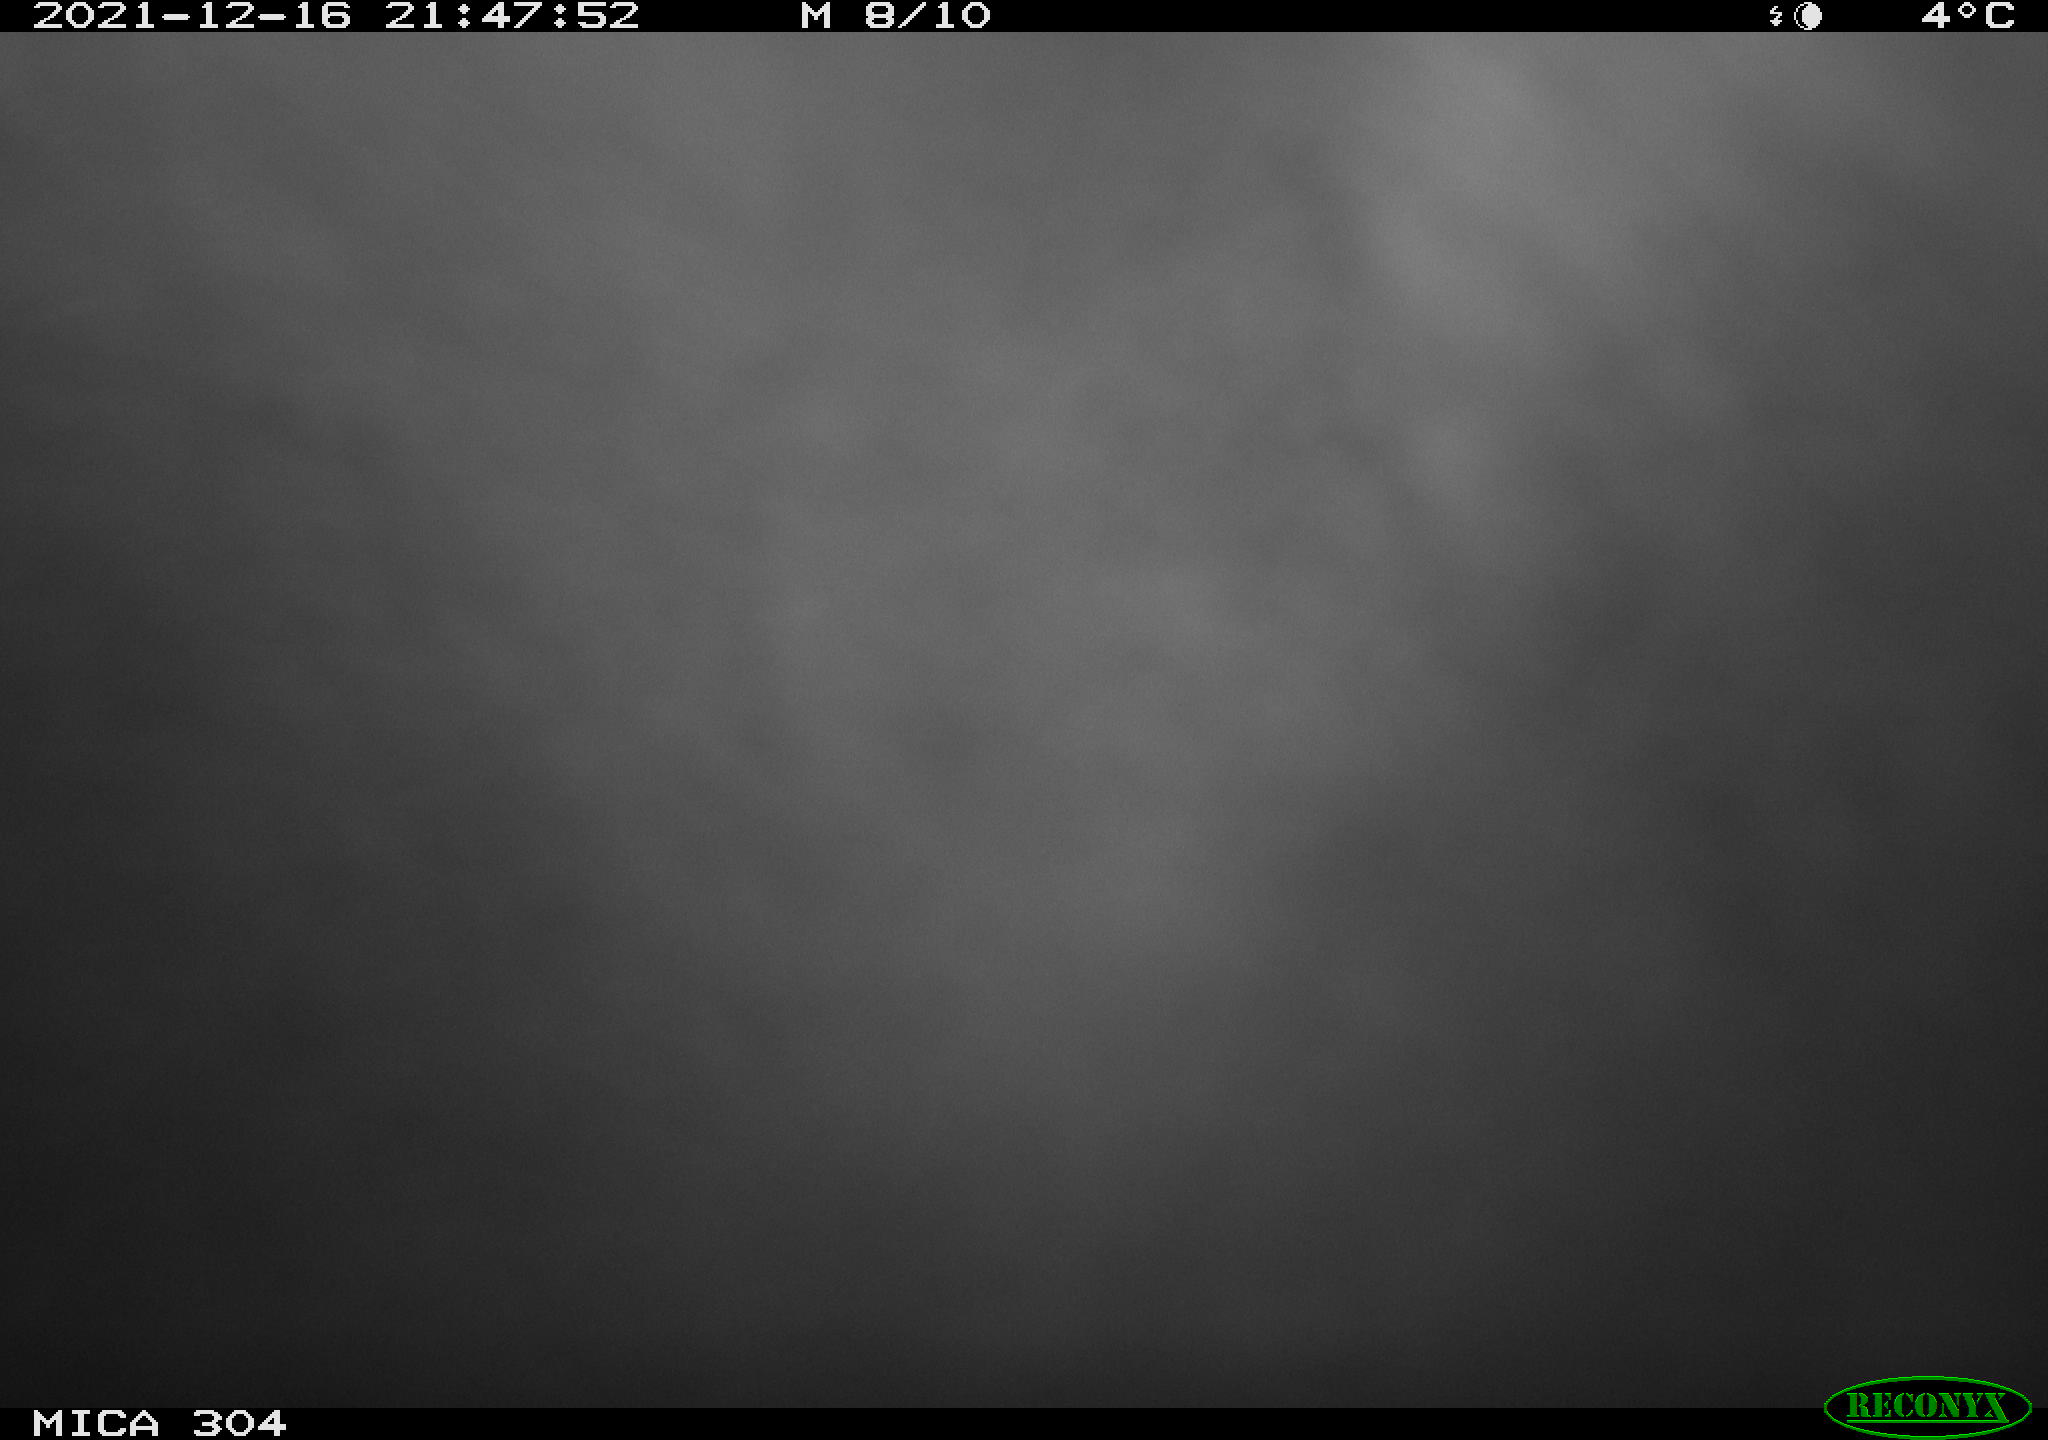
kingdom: Animalia
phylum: Chordata
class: Mammalia
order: Rodentia
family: Muridae
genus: Rattus
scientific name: Rattus norvegicus
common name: Brown rat
